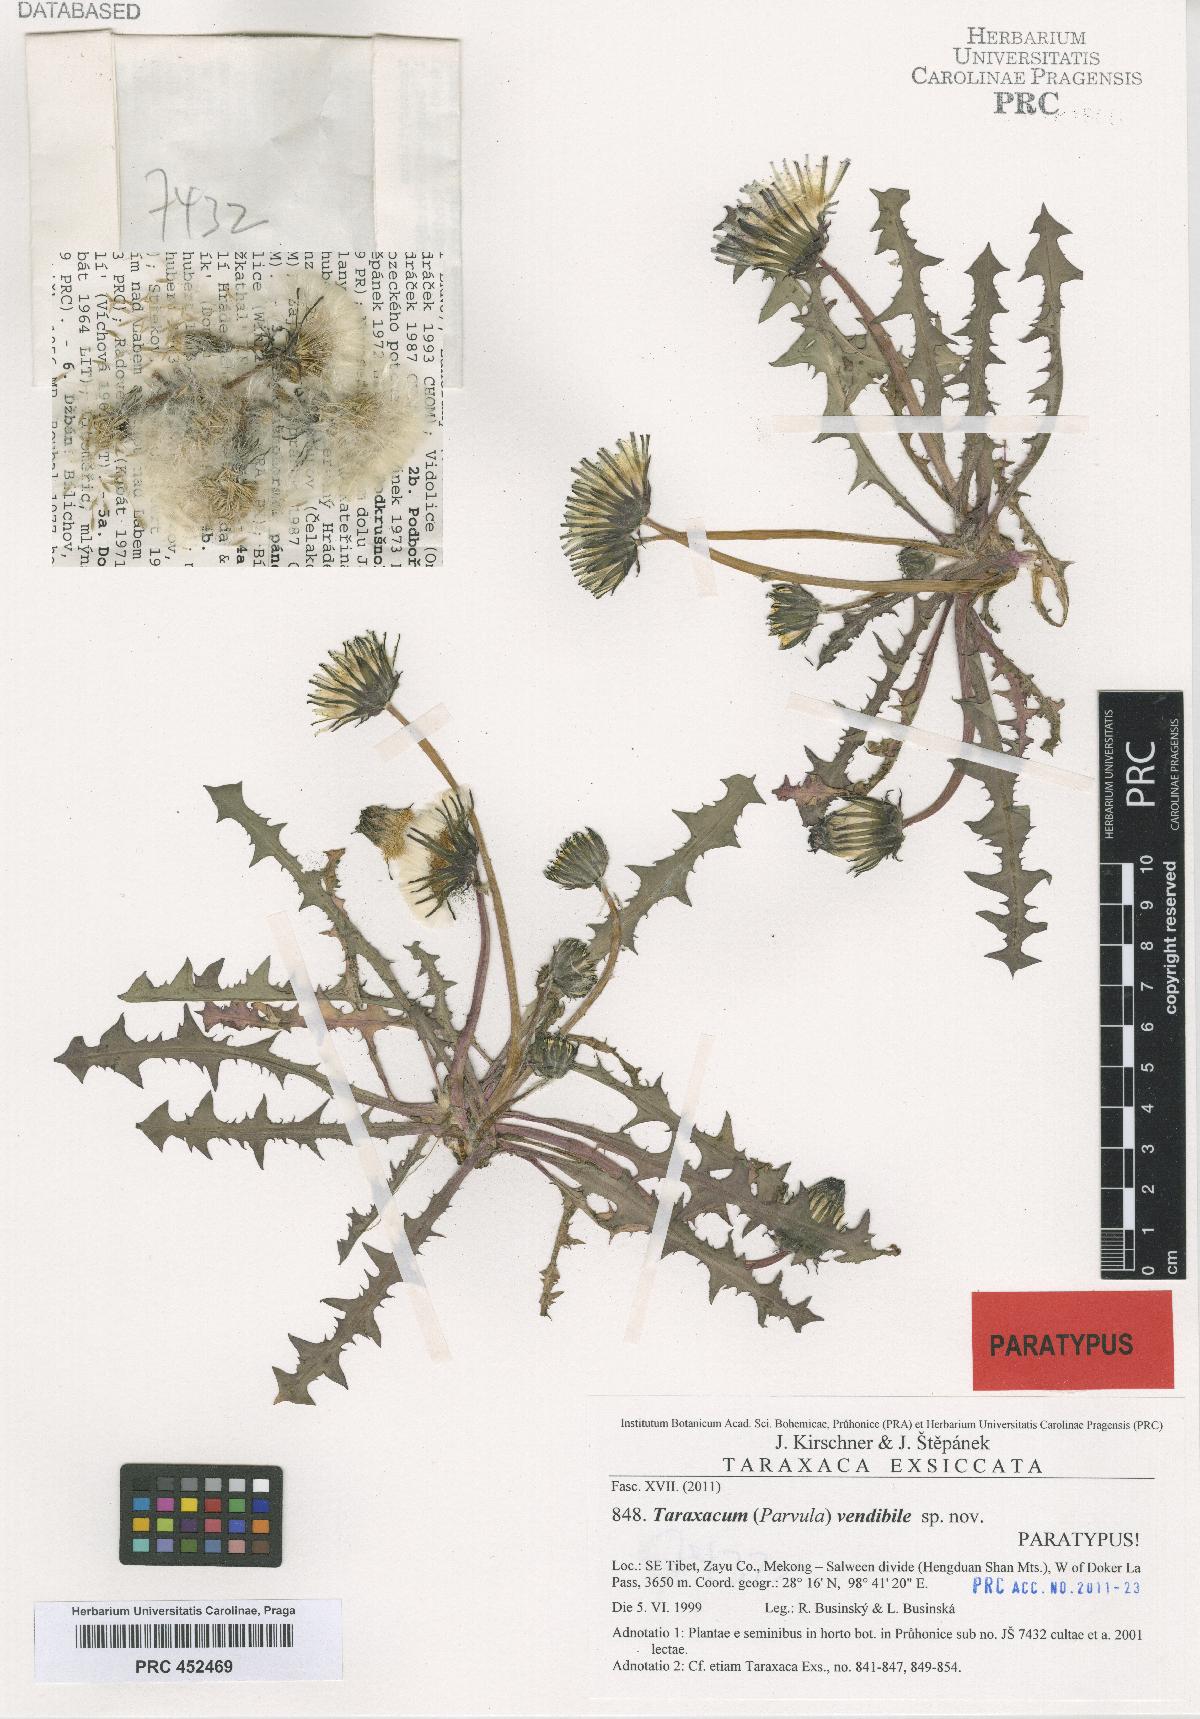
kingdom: Plantae
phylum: Tracheophyta
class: Magnoliopsida
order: Asterales
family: Asteraceae
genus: Taraxacum
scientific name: Taraxacum vendibile
